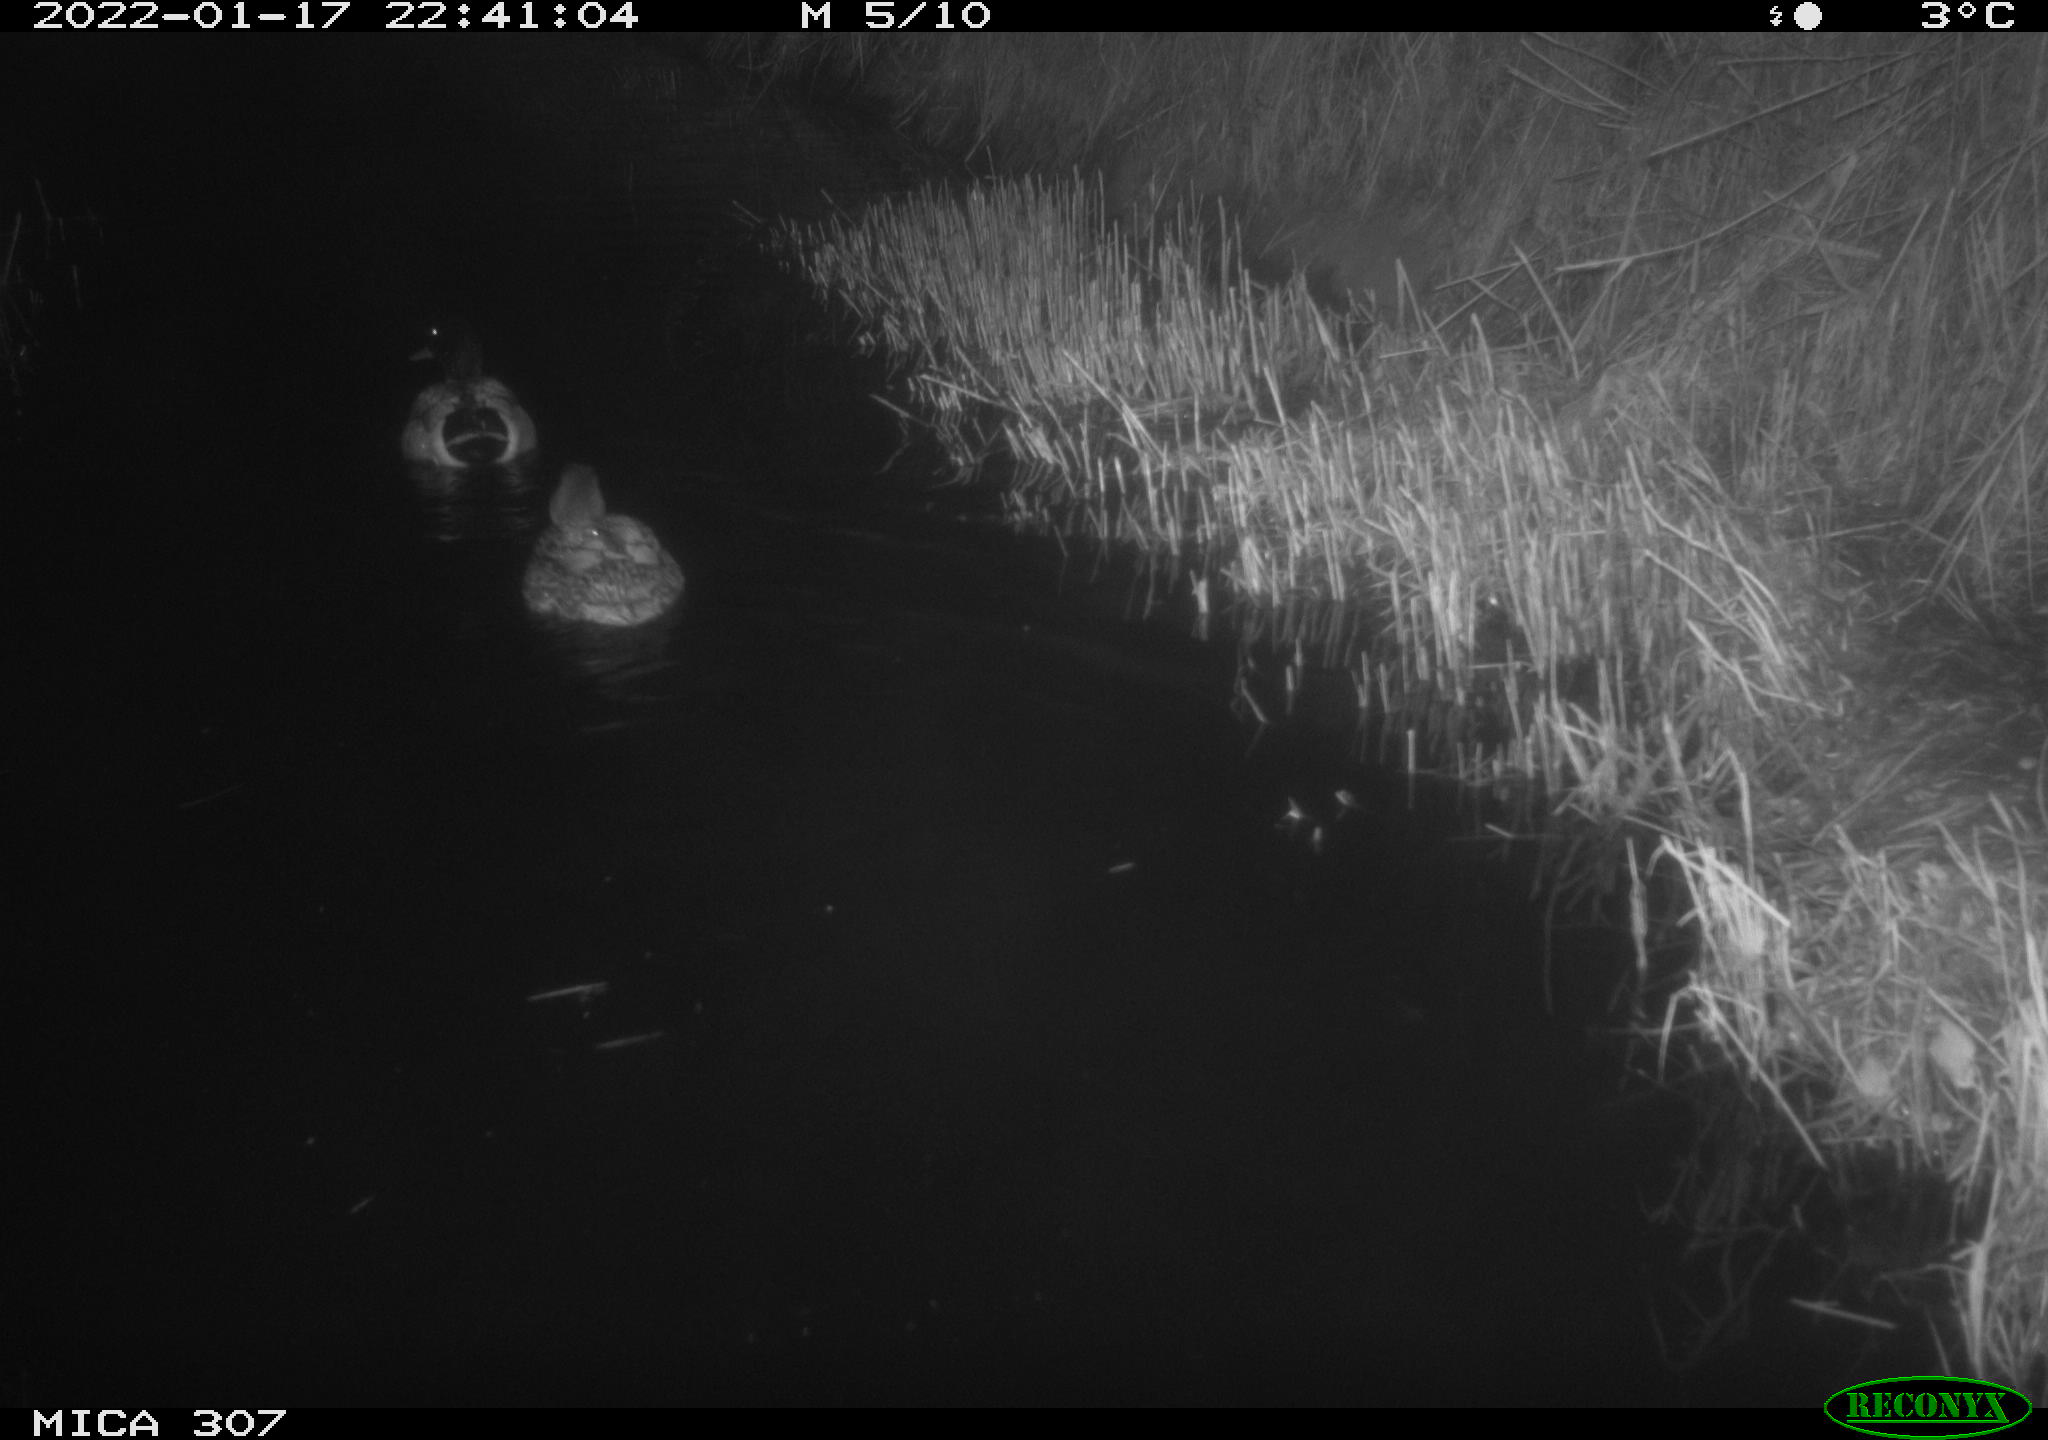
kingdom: Animalia
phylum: Chordata
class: Aves
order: Anseriformes
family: Anatidae
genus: Anas
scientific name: Anas
